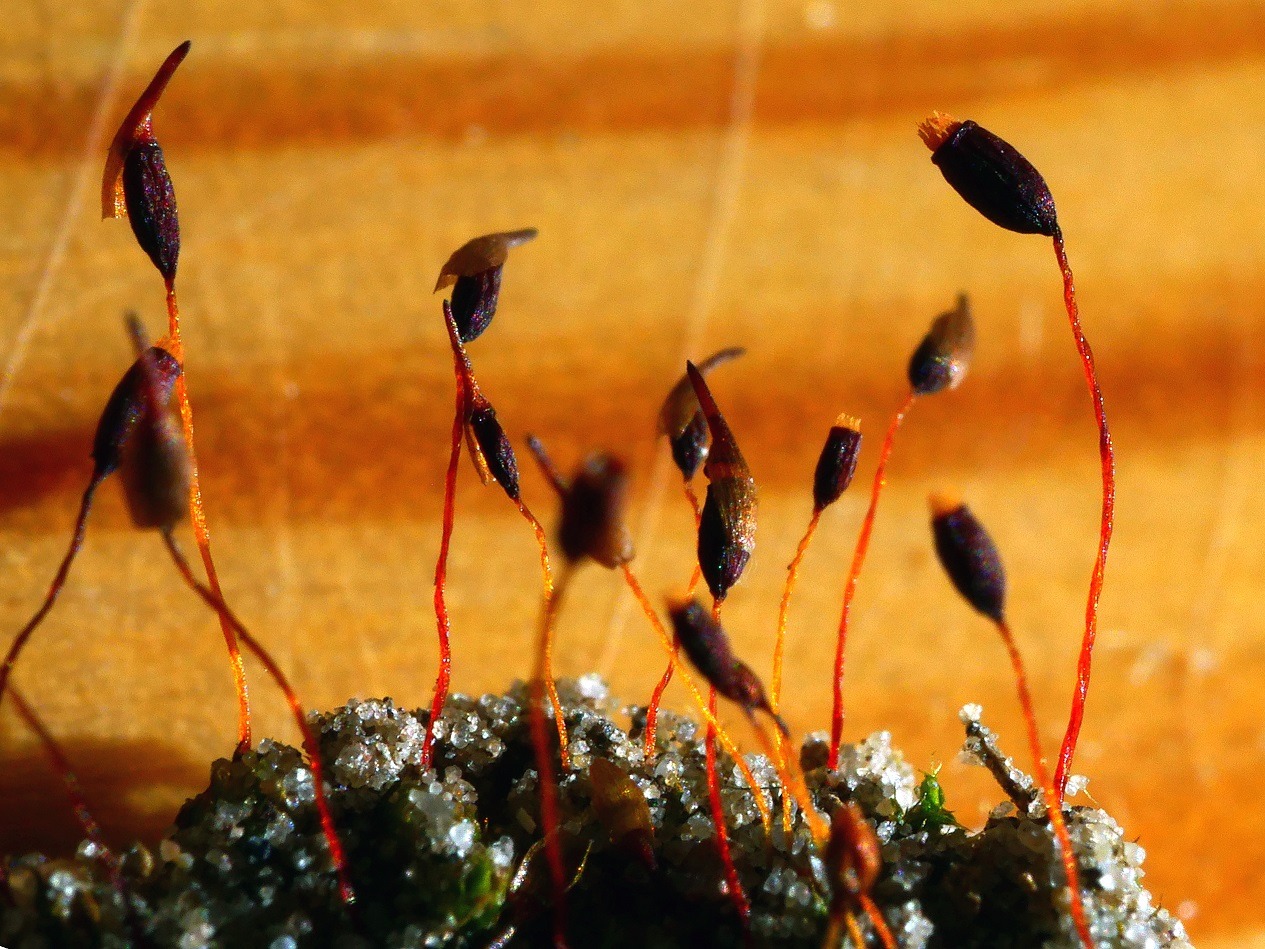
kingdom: Plantae
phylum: Bryophyta
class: Bryopsida
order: Pottiales
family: Pottiaceae
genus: Tortula
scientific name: Tortula lindbergii
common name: Lancet-bægermos
